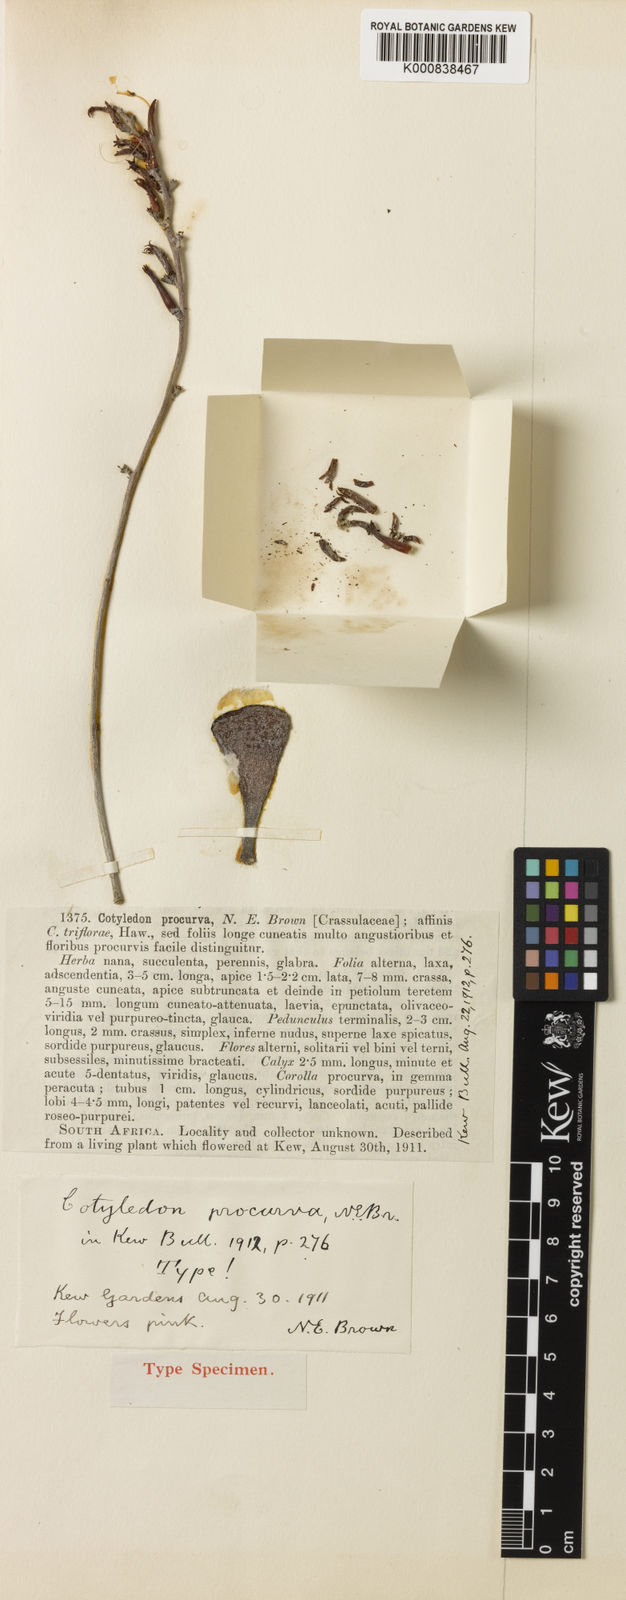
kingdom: Plantae
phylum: Tracheophyta
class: Magnoliopsida
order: Saxifragales
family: Crassulaceae
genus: Adromischus
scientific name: Adromischus triflorus
